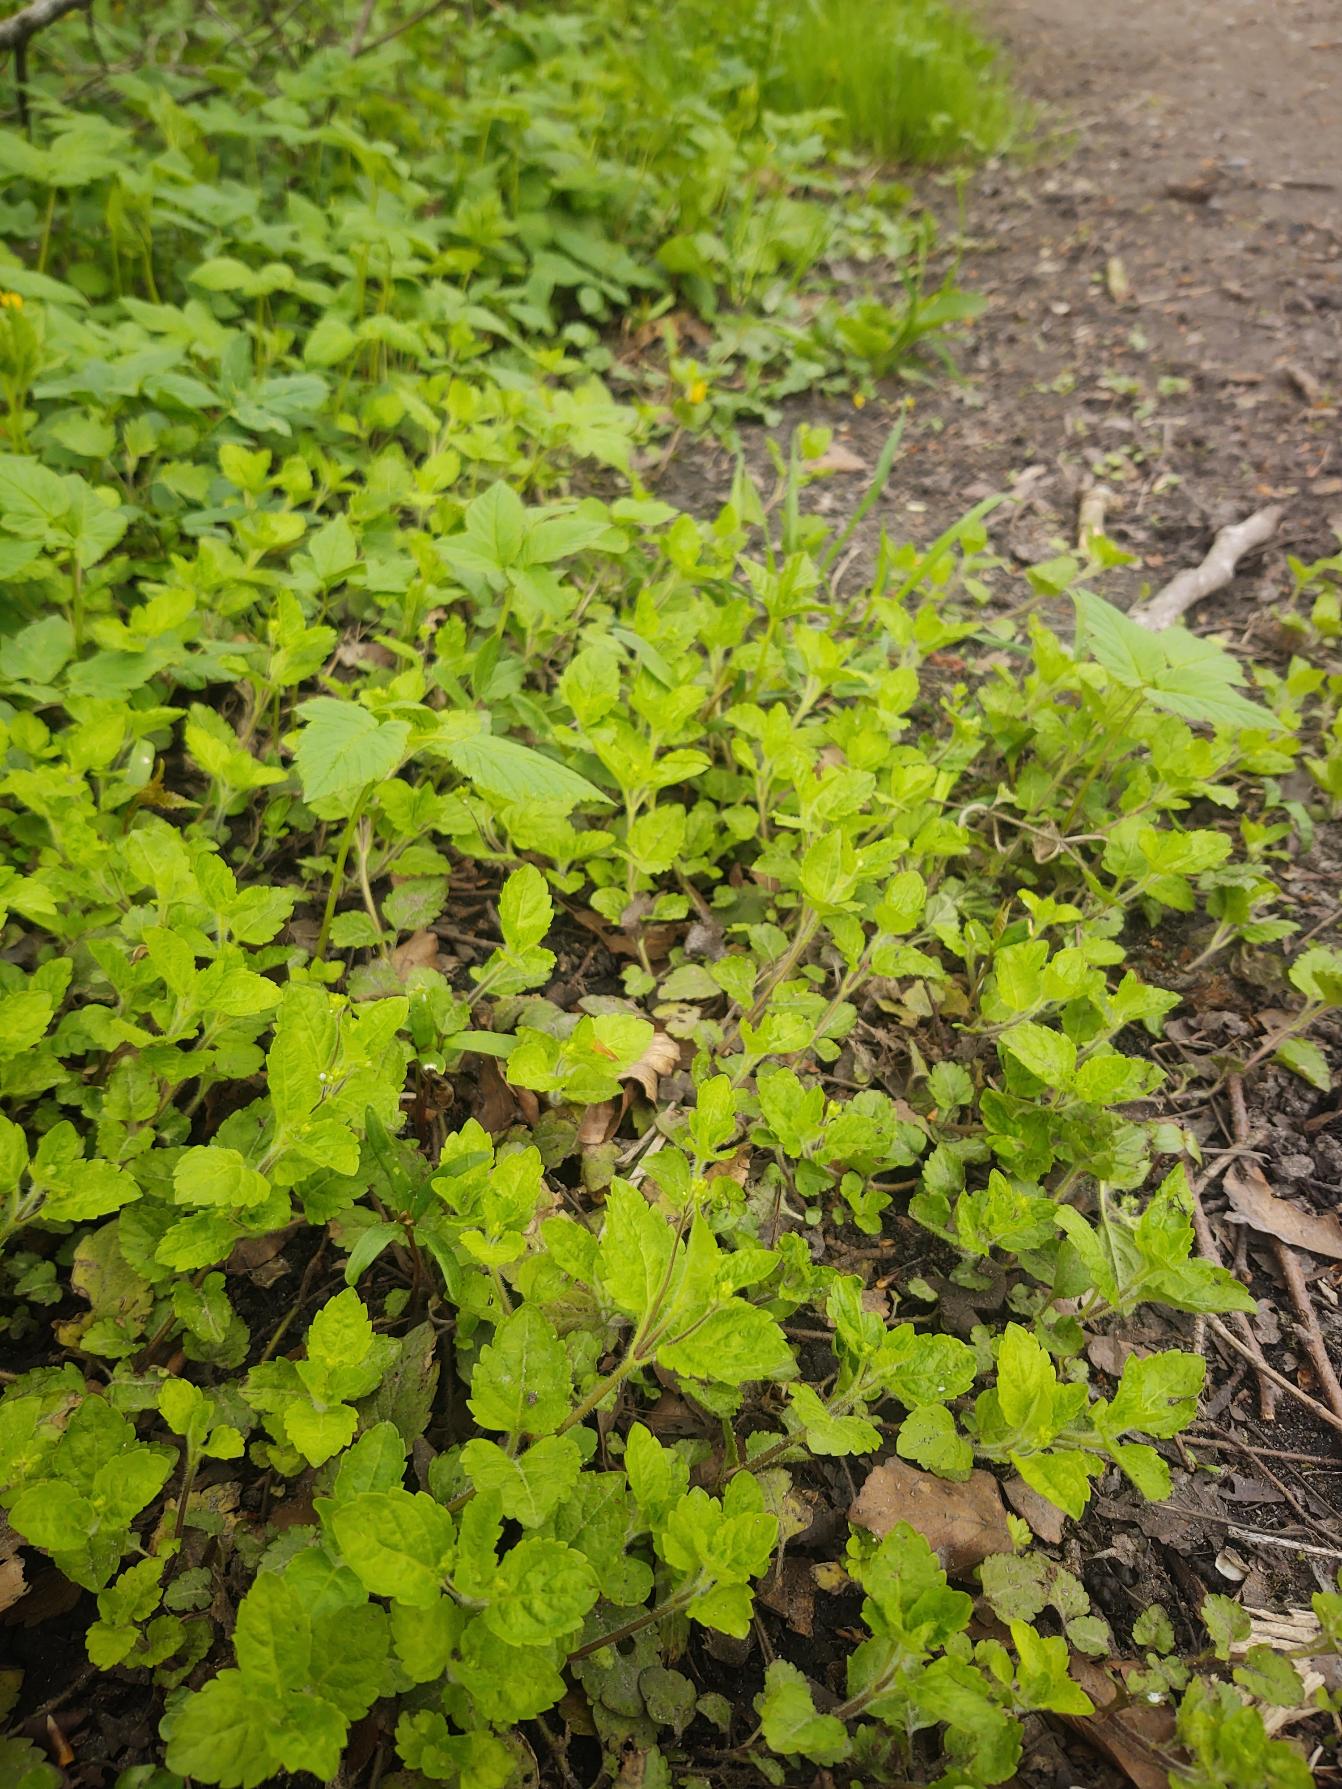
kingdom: Plantae
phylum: Tracheophyta
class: Magnoliopsida
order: Lamiales
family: Plantaginaceae
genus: Veronica
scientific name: Veronica montana
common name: Bjerg-ærenpris
